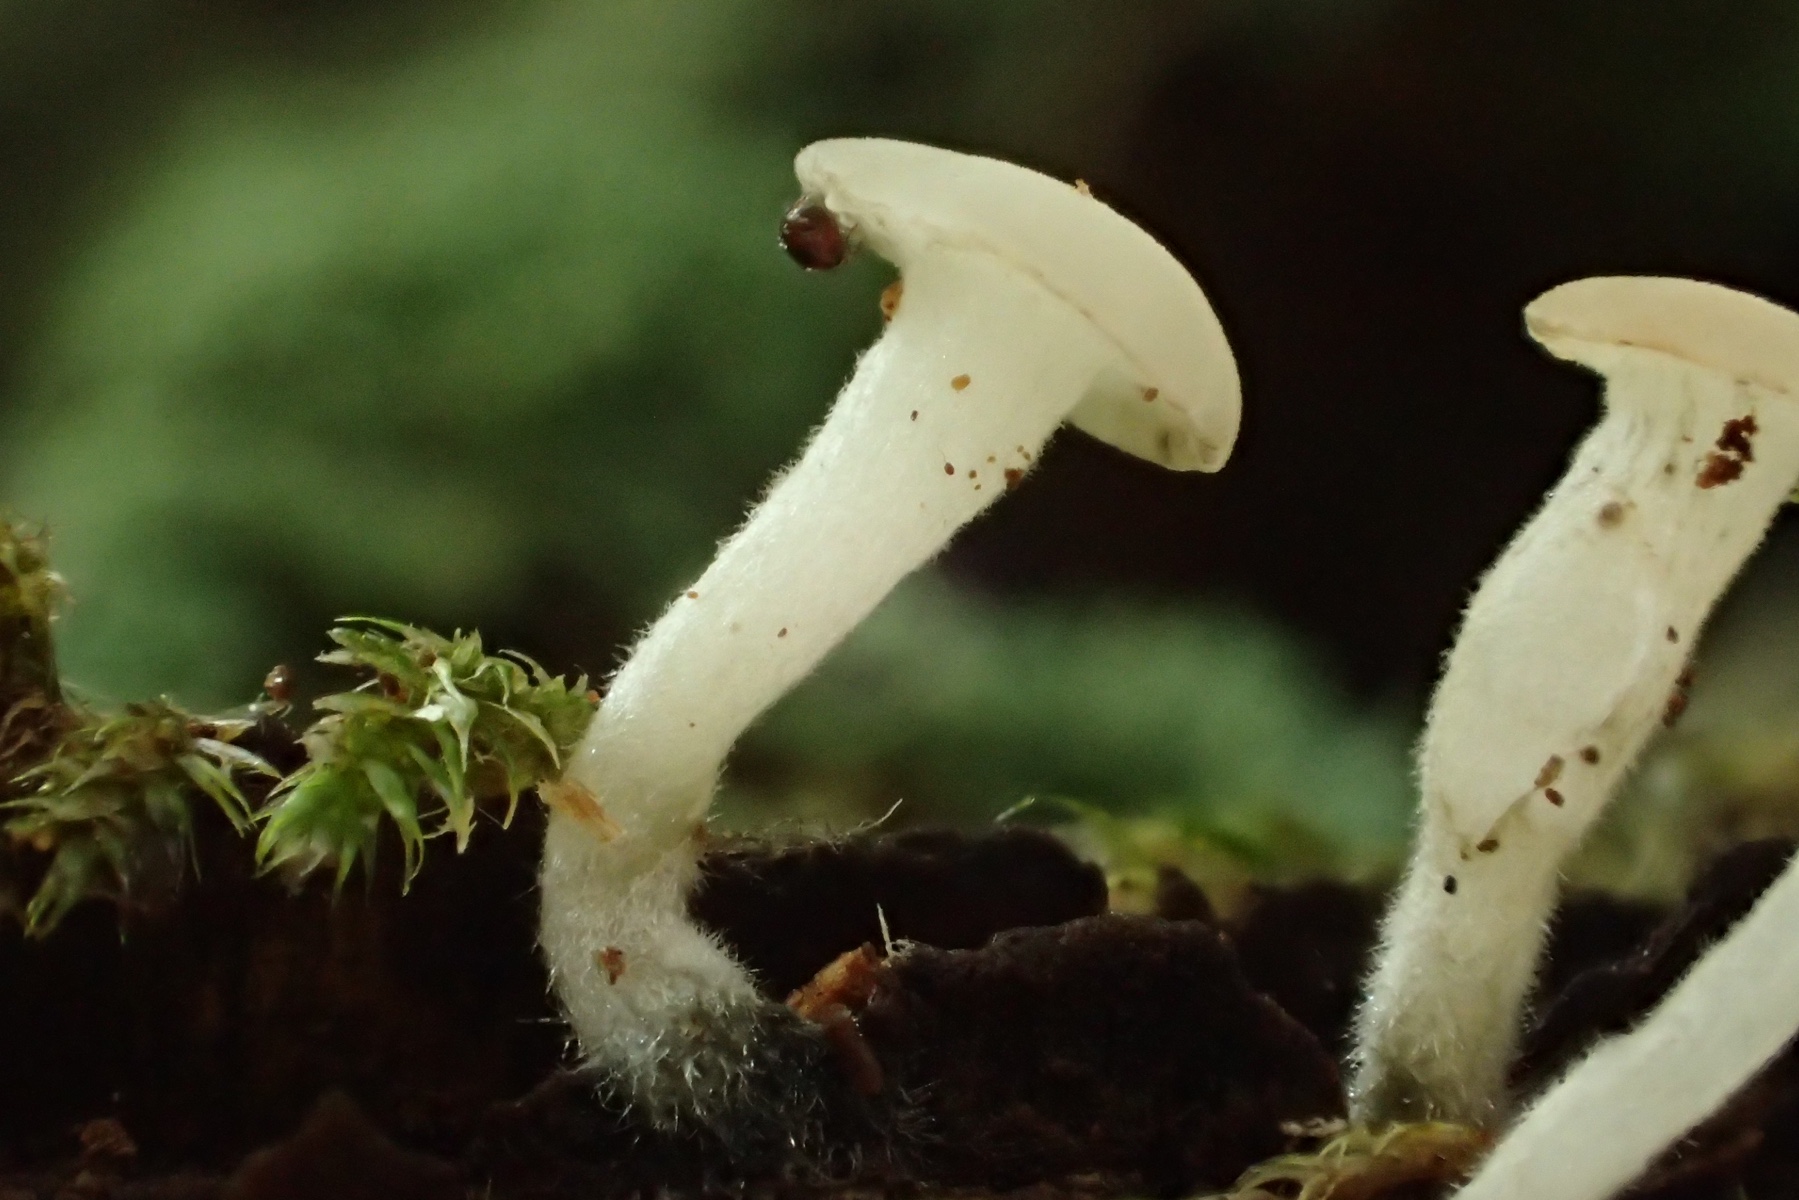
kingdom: Fungi
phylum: Ascomycota
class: Leotiomycetes
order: Helotiales
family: Tricladiaceae
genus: Cudoniella
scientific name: Cudoniella acicularis
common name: ege-dyndskive
